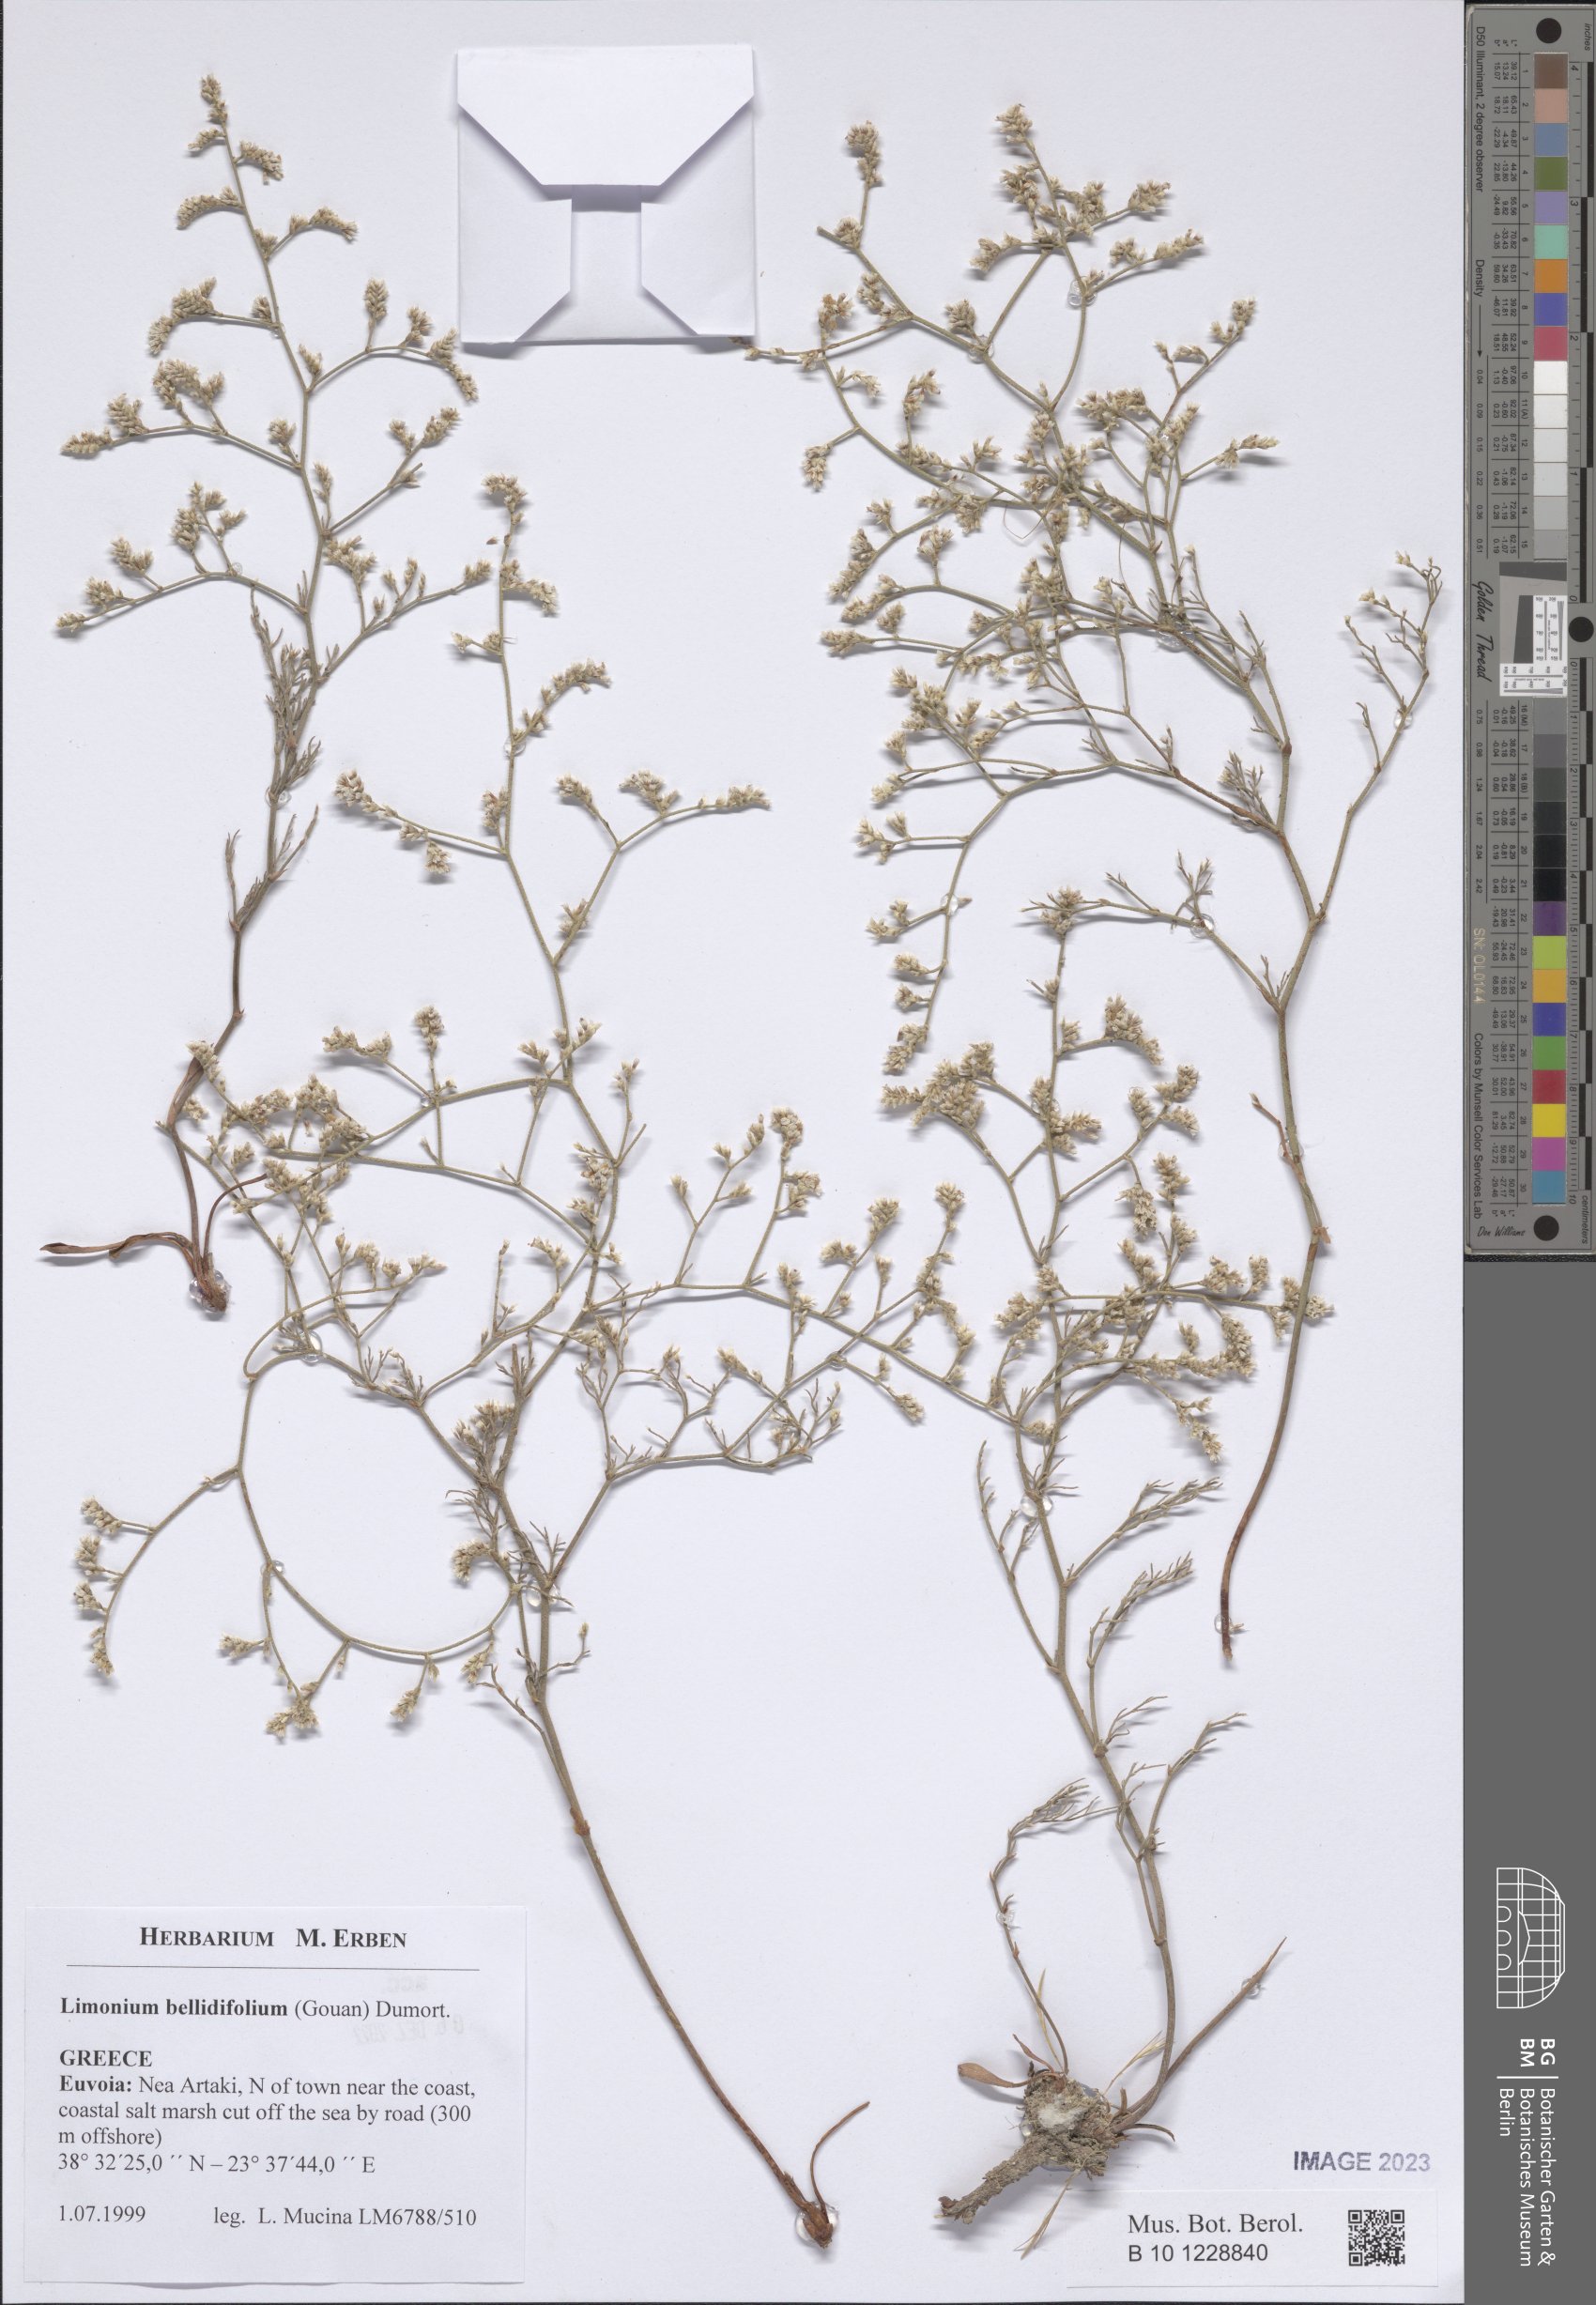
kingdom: Plantae
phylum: Tracheophyta
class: Magnoliopsida
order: Caryophyllales
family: Plumbaginaceae
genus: Limonium
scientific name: Limonium bellidifolium
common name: Matted sea-lavender
